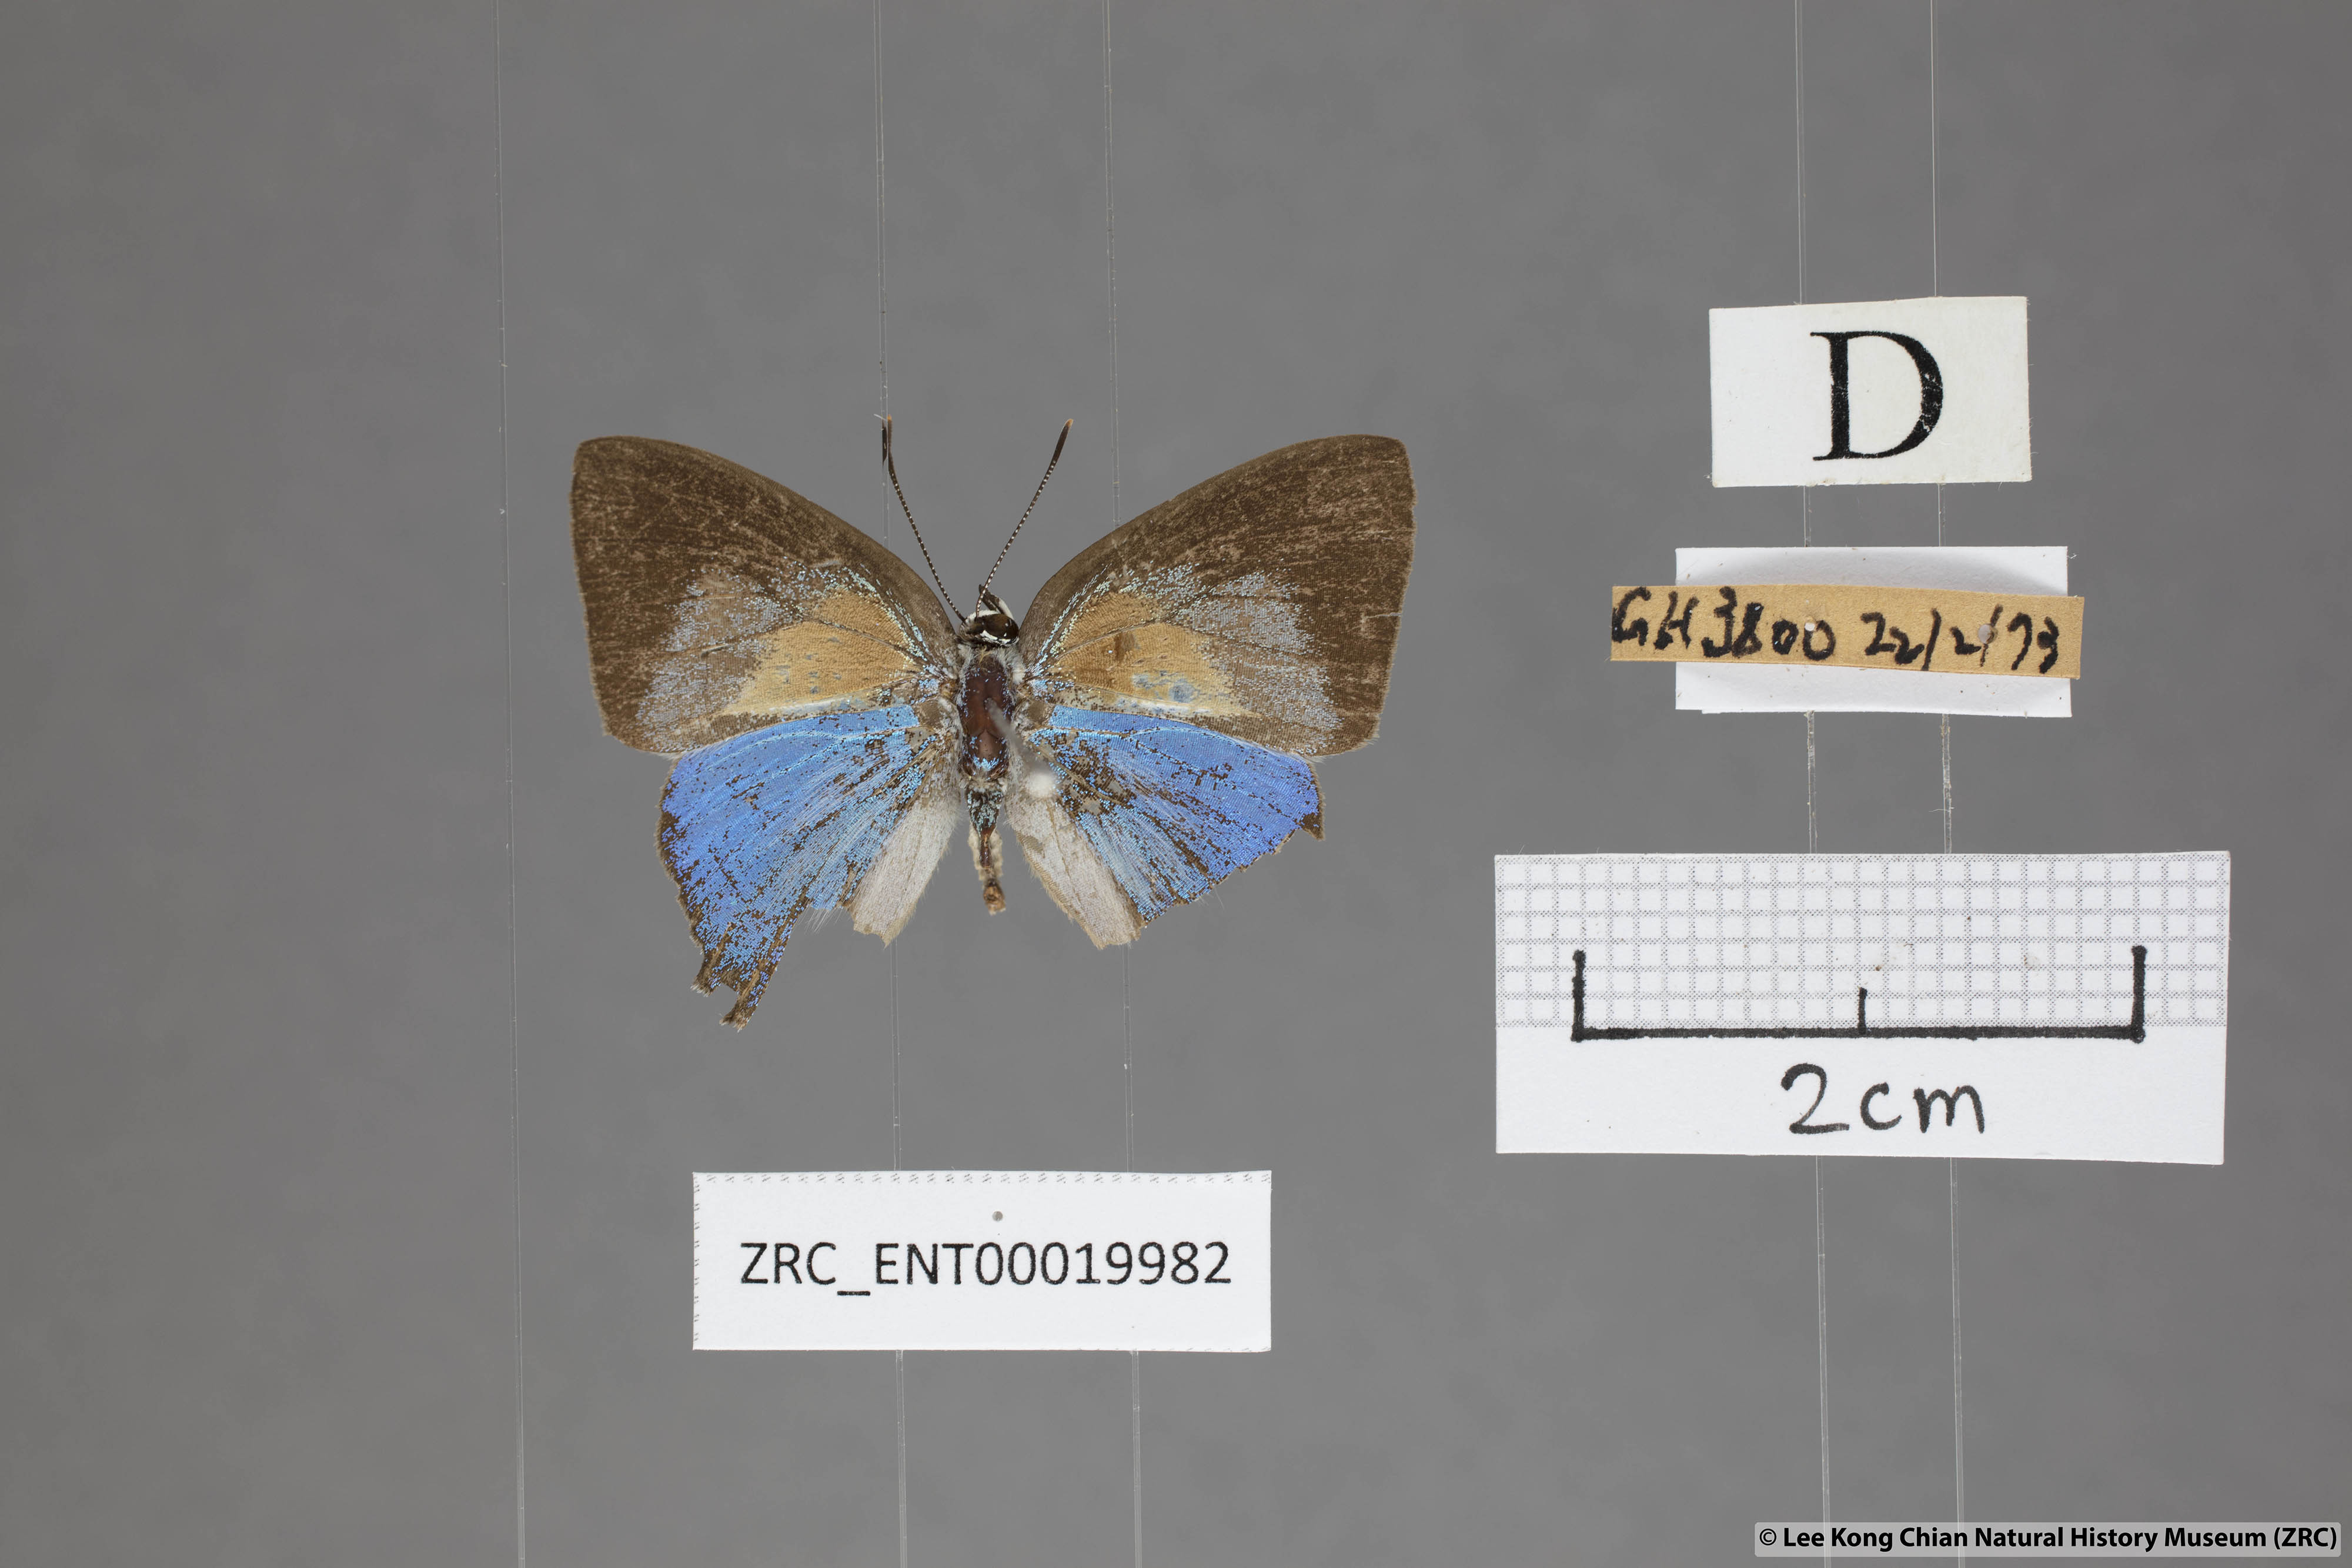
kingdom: Animalia
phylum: Arthropoda
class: Insecta
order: Lepidoptera
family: Lycaenidae
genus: Bullis
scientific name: Bullis elioti
